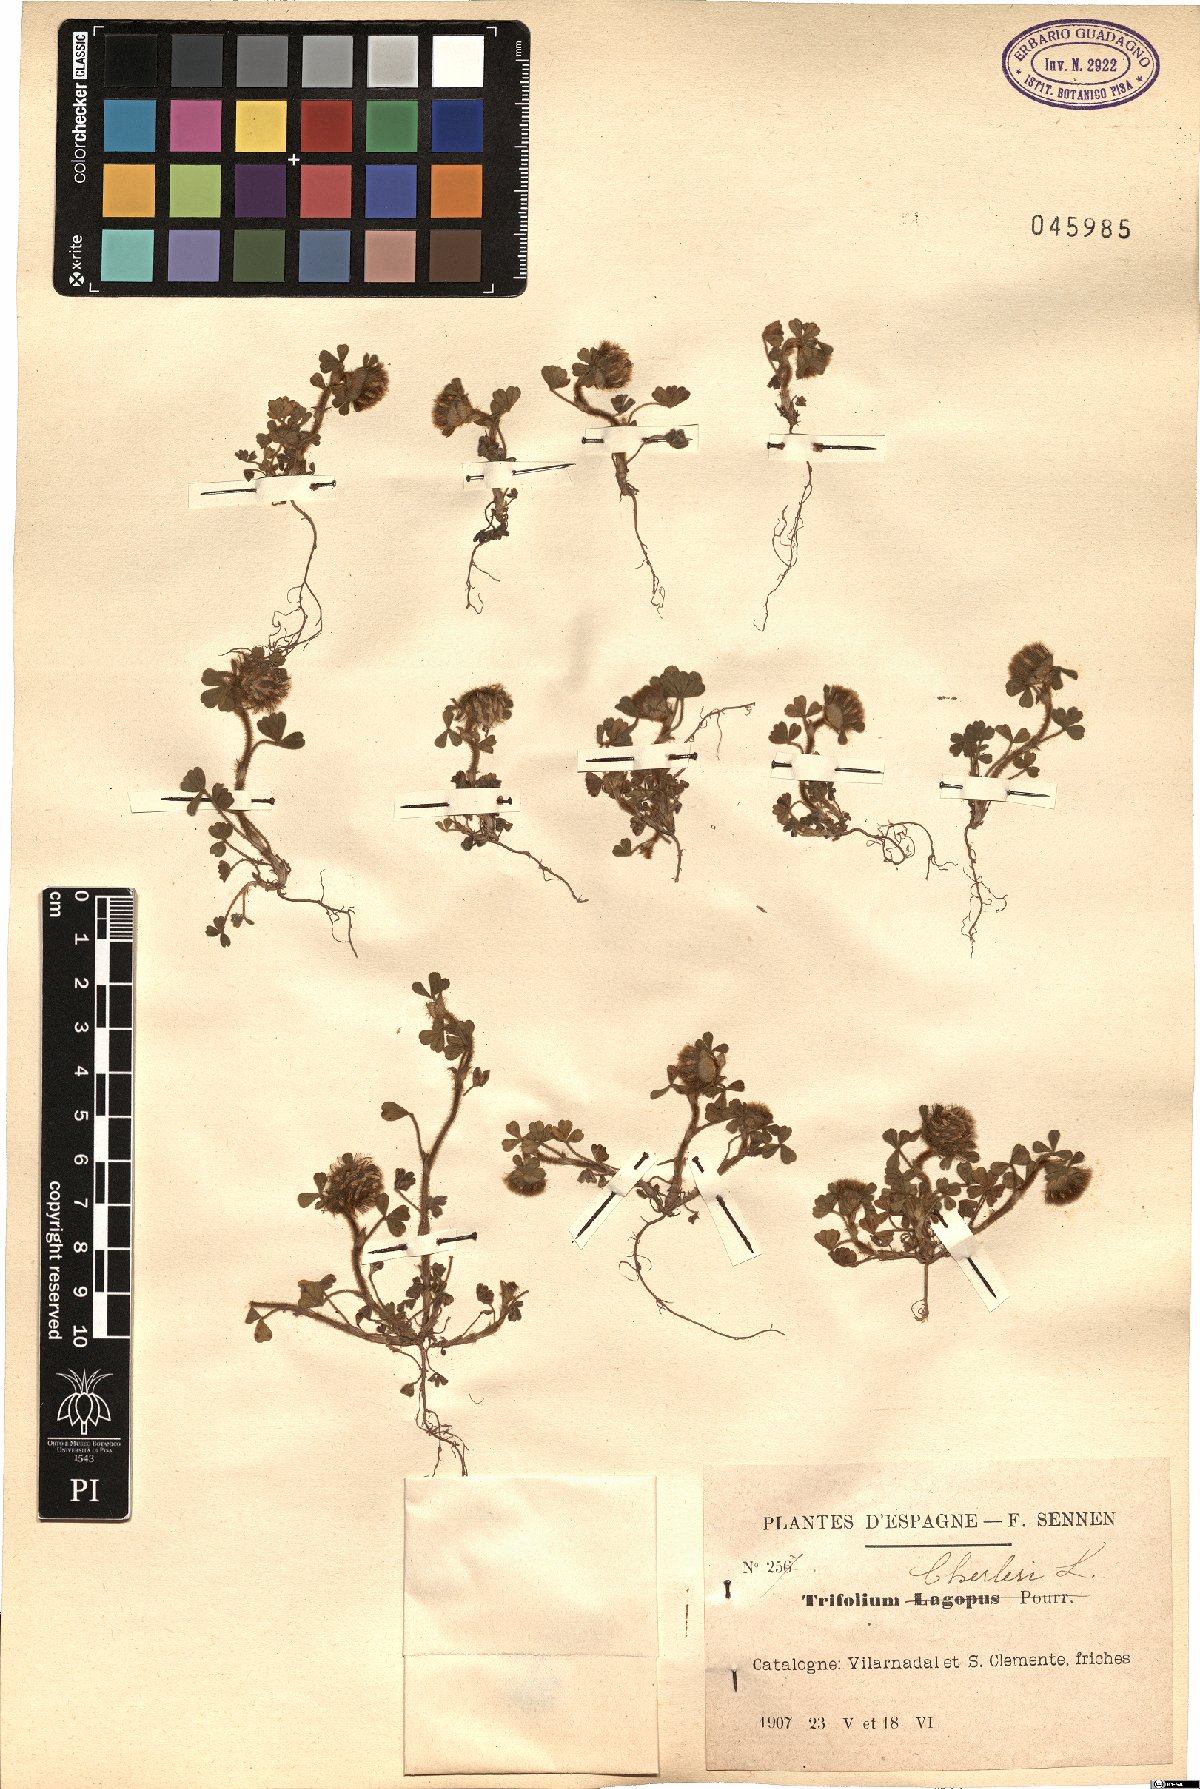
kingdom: Plantae
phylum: Tracheophyta
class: Magnoliopsida
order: Fabales
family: Fabaceae
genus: Trifolium
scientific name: Trifolium cherleri
